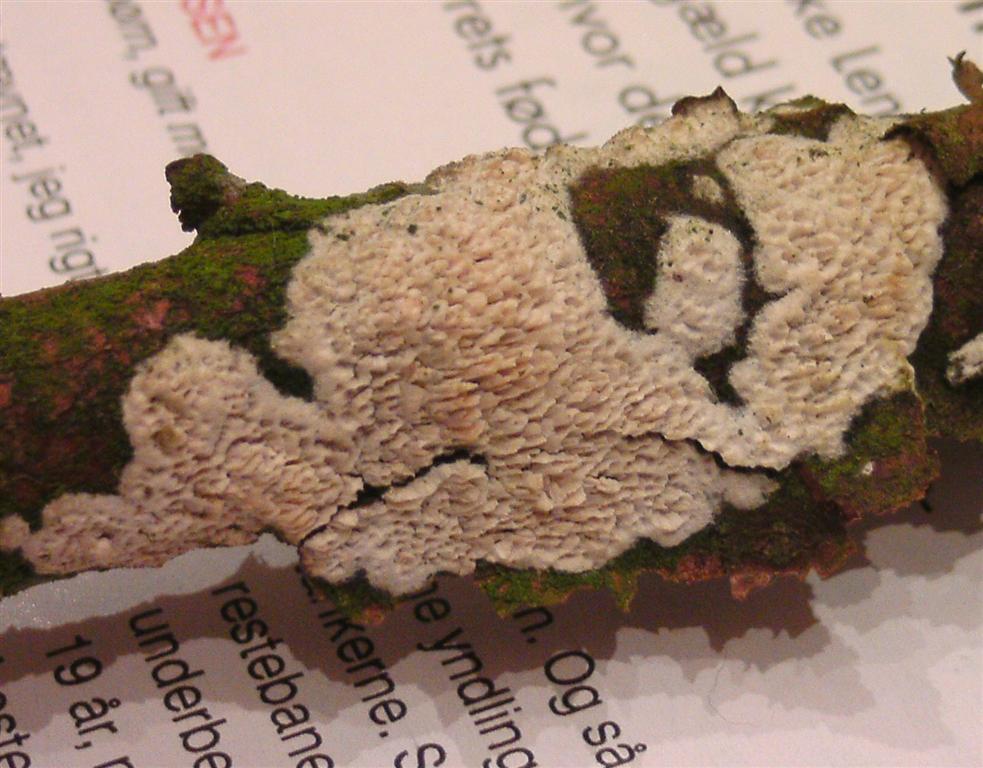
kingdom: Fungi
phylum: Basidiomycota
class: Agaricomycetes
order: Hymenochaetales
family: Schizoporaceae
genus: Schizopora
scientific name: Schizopora paradoxa
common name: hvid tandsvamp
